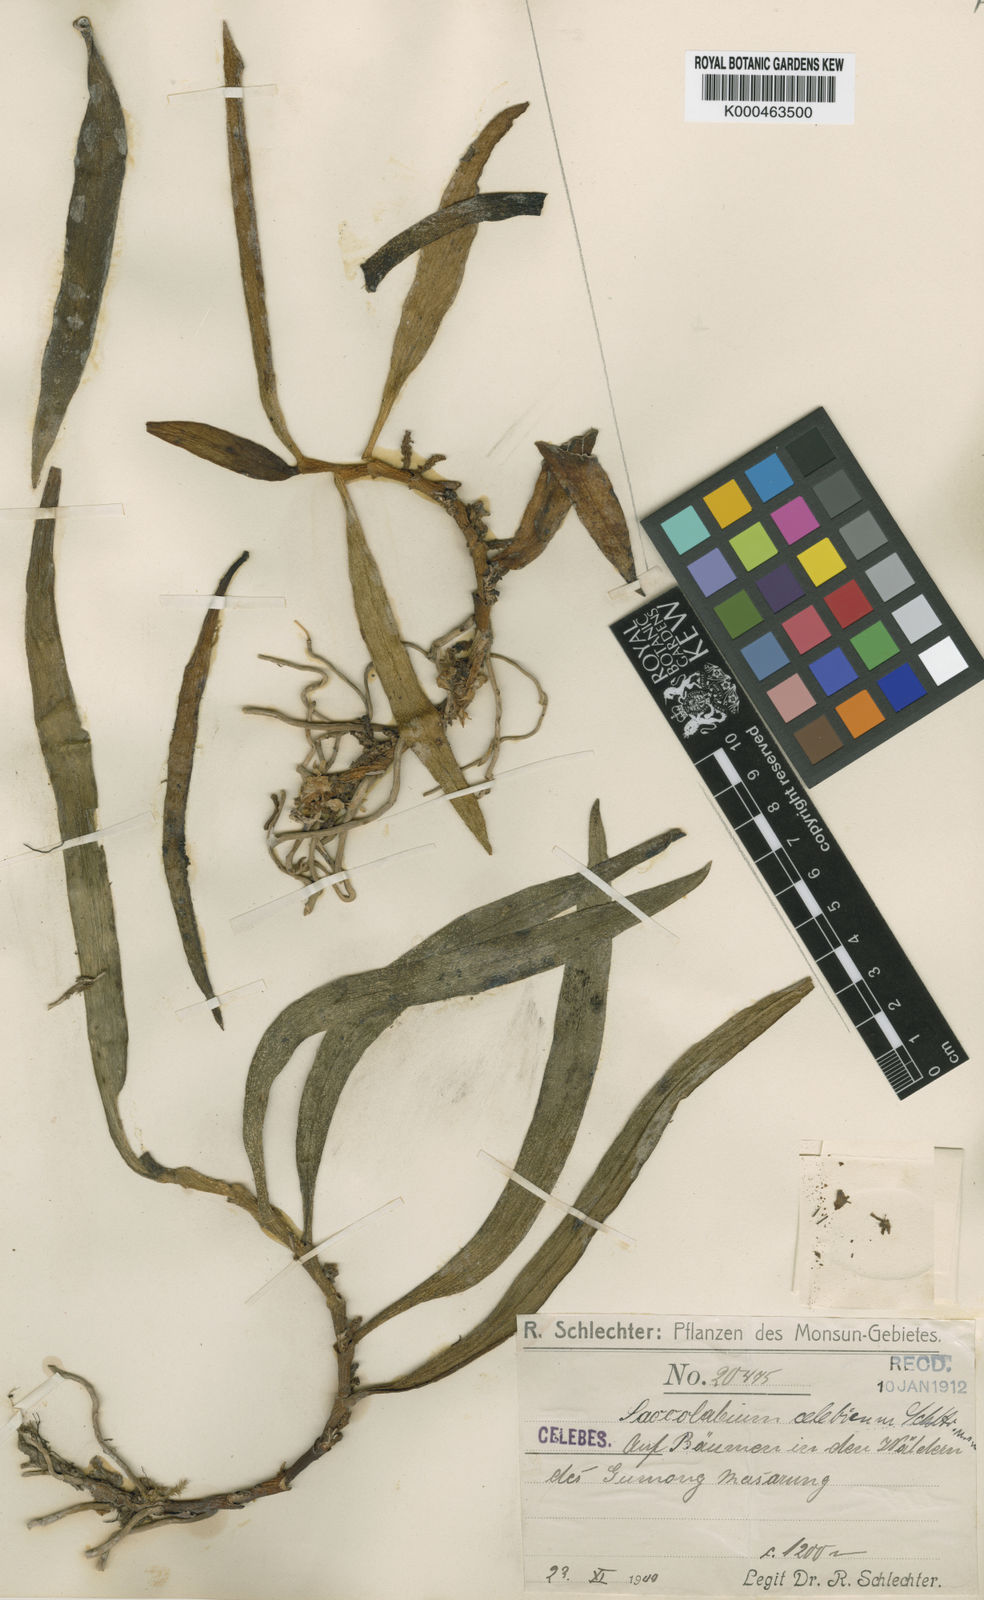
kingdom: Plantae
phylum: Tracheophyta
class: Liliopsida
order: Asparagales
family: Orchidaceae
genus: Trachoma
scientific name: Trachoma celebicum
